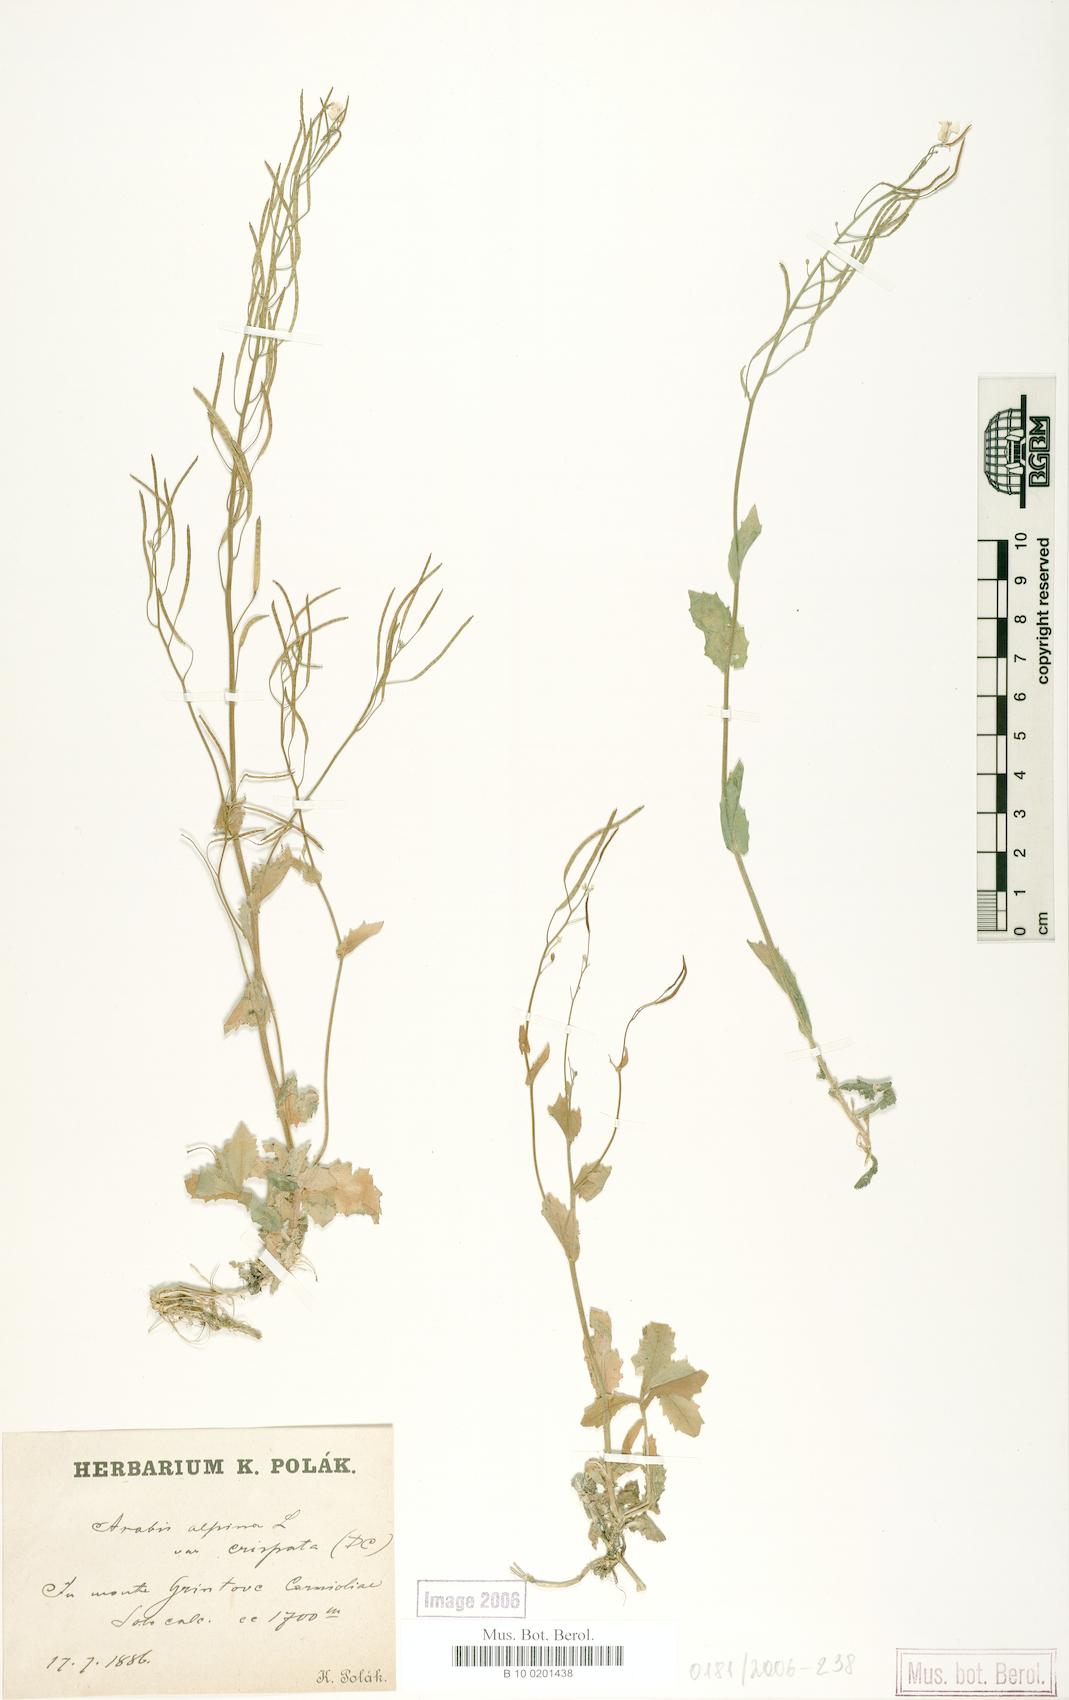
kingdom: Plantae
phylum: Tracheophyta
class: Magnoliopsida
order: Brassicales
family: Brassicaceae
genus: Arabis
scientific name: Arabis alpina
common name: Alpine rock-cress
